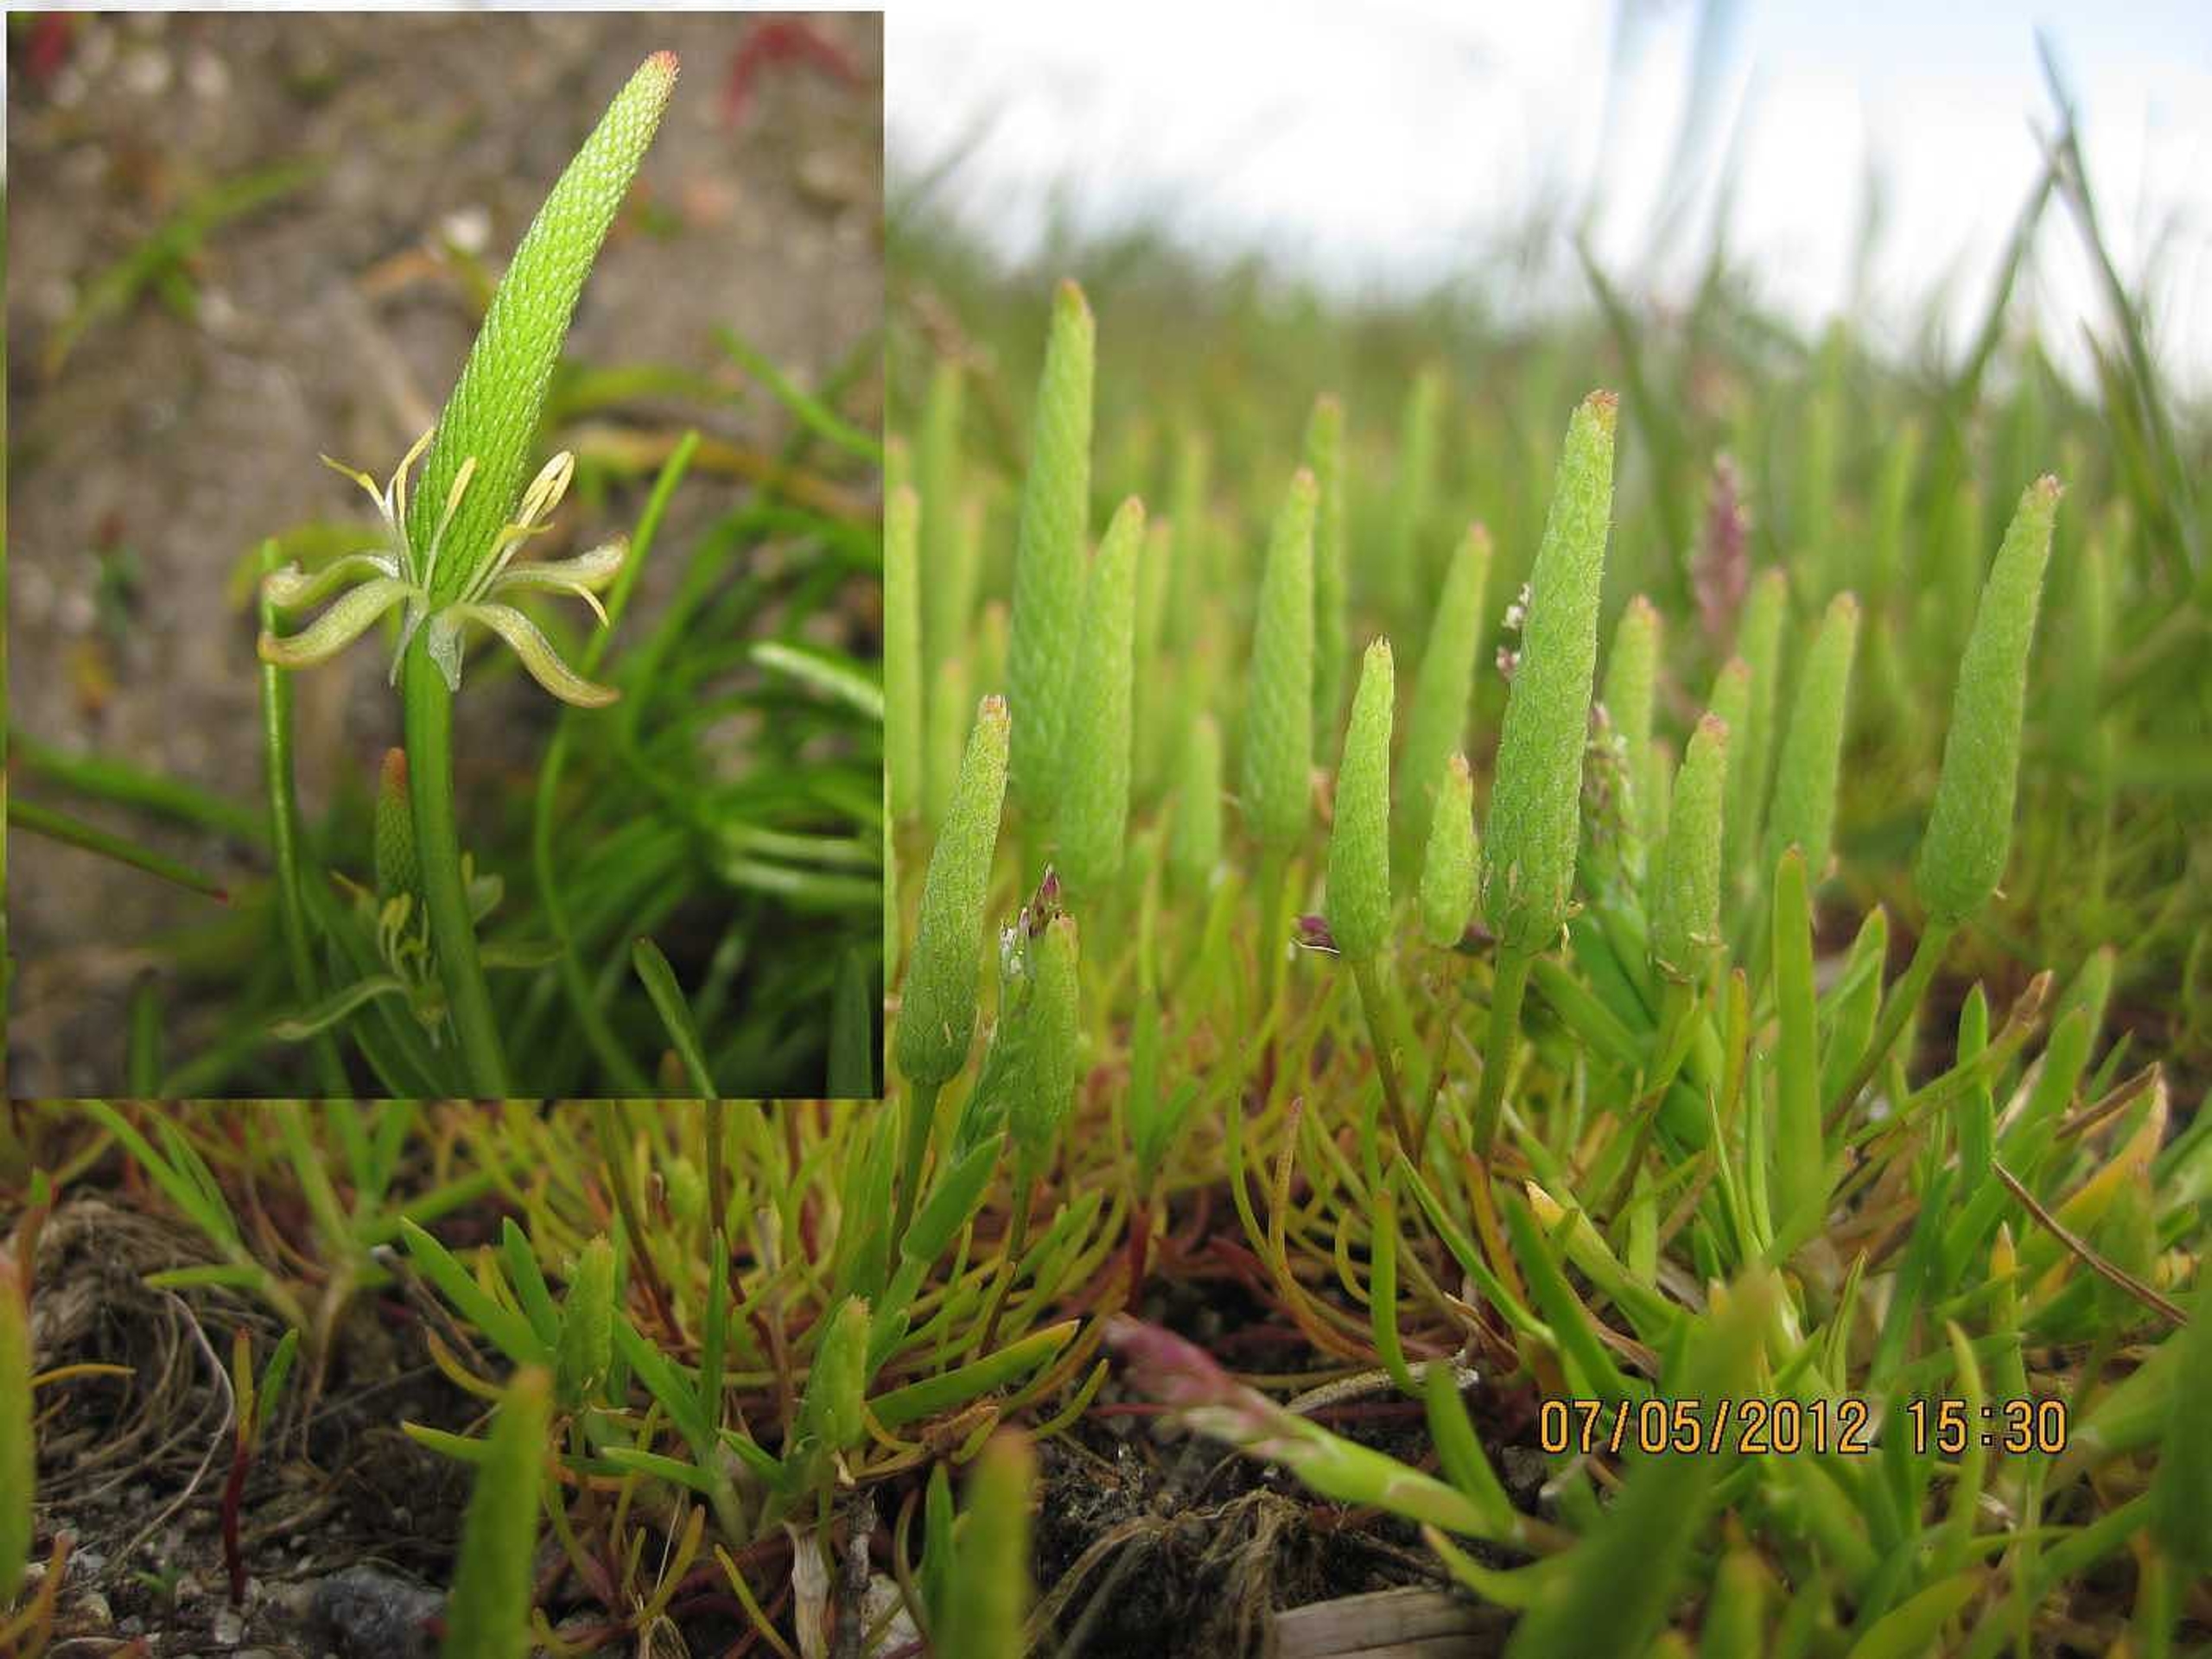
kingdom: Plantae
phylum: Tracheophyta
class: Magnoliopsida
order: Ranunculales
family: Ranunculaceae
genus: Myosurus
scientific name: Myosurus minimus
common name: Musehale
